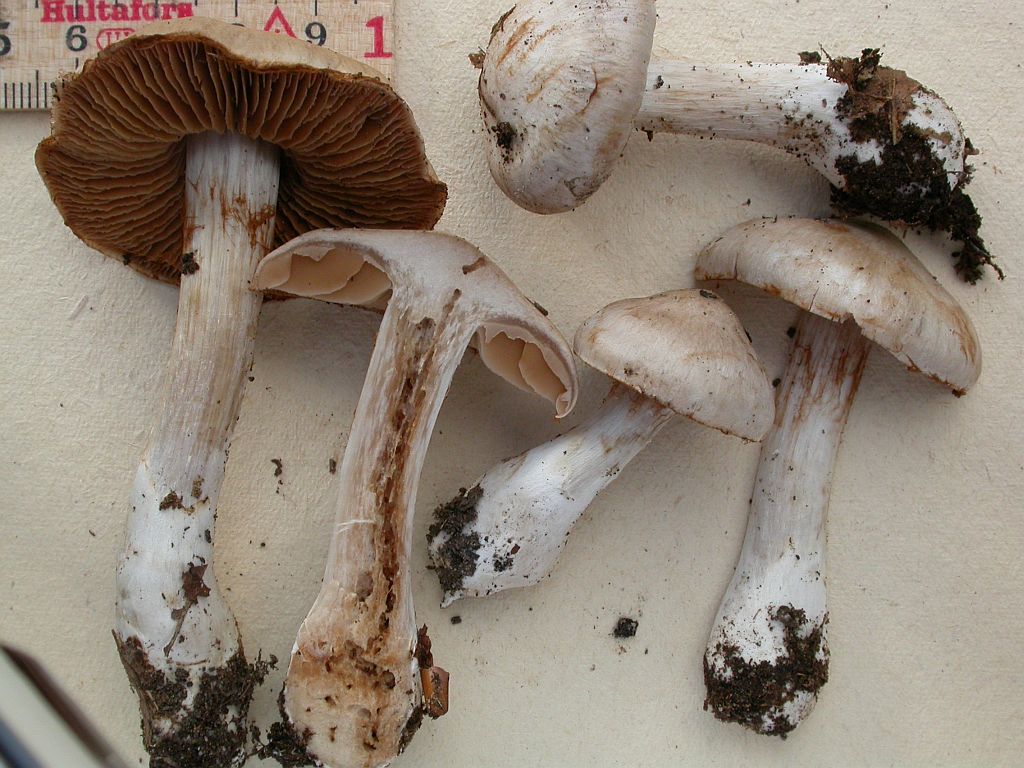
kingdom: Fungi
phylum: Basidiomycota
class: Agaricomycetes
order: Agaricales
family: Cortinariaceae
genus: Cortinarius
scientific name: Cortinarius urbicus
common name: sølv-slørhat
